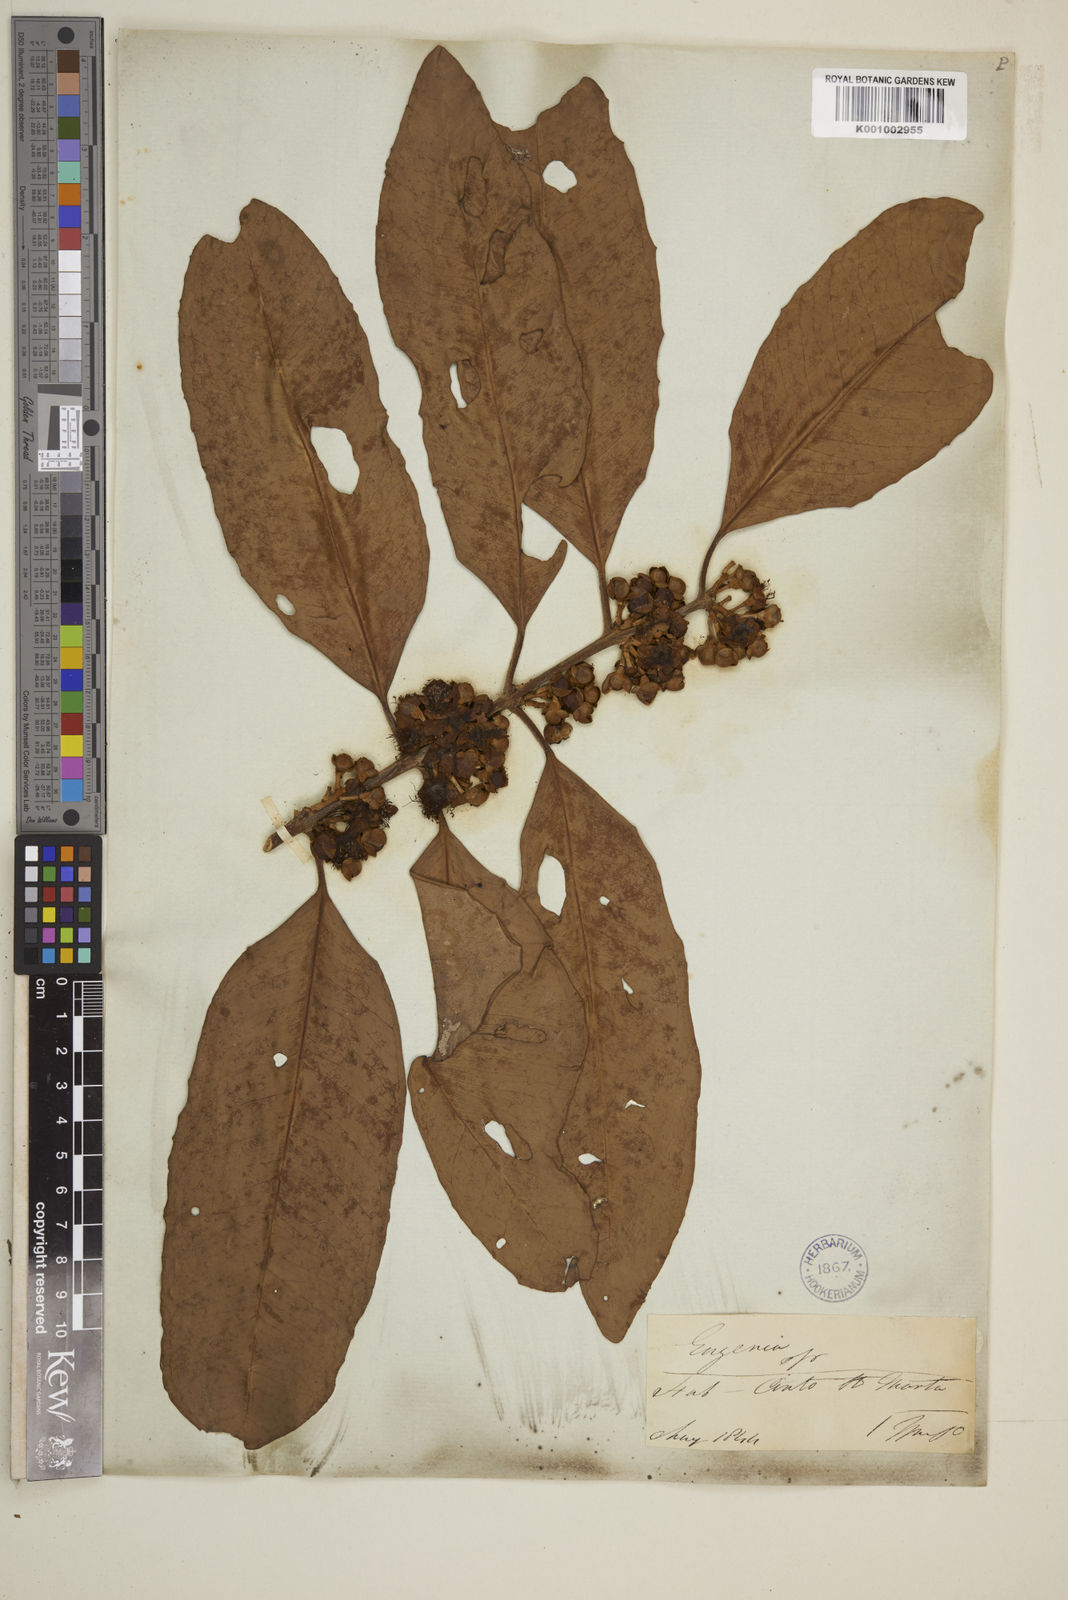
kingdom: Plantae
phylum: Tracheophyta
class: Magnoliopsida
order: Myrtales
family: Myrtaceae
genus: Syzygium
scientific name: Syzygium maingayi
